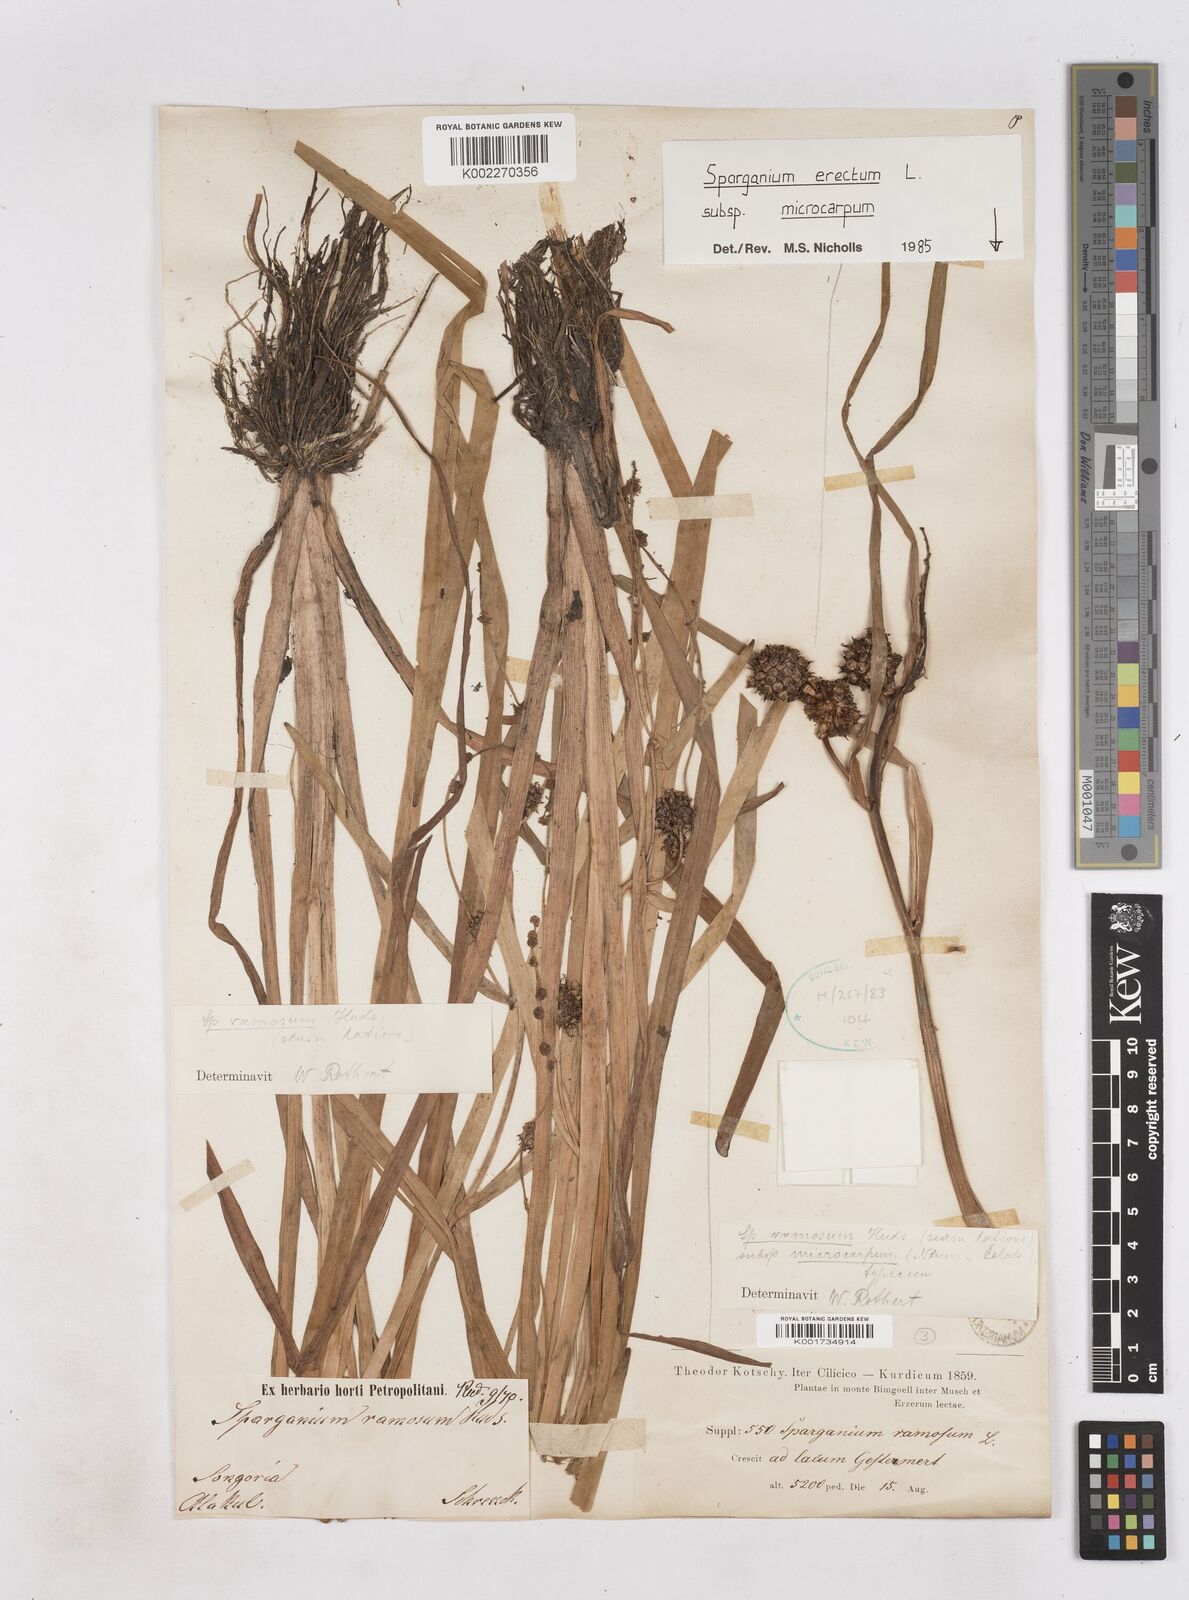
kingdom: Plantae
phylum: Tracheophyta
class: Liliopsida
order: Poales
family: Typhaceae
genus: Sparganium
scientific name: Sparganium eurycarpum
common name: Broad-fruited burreed
